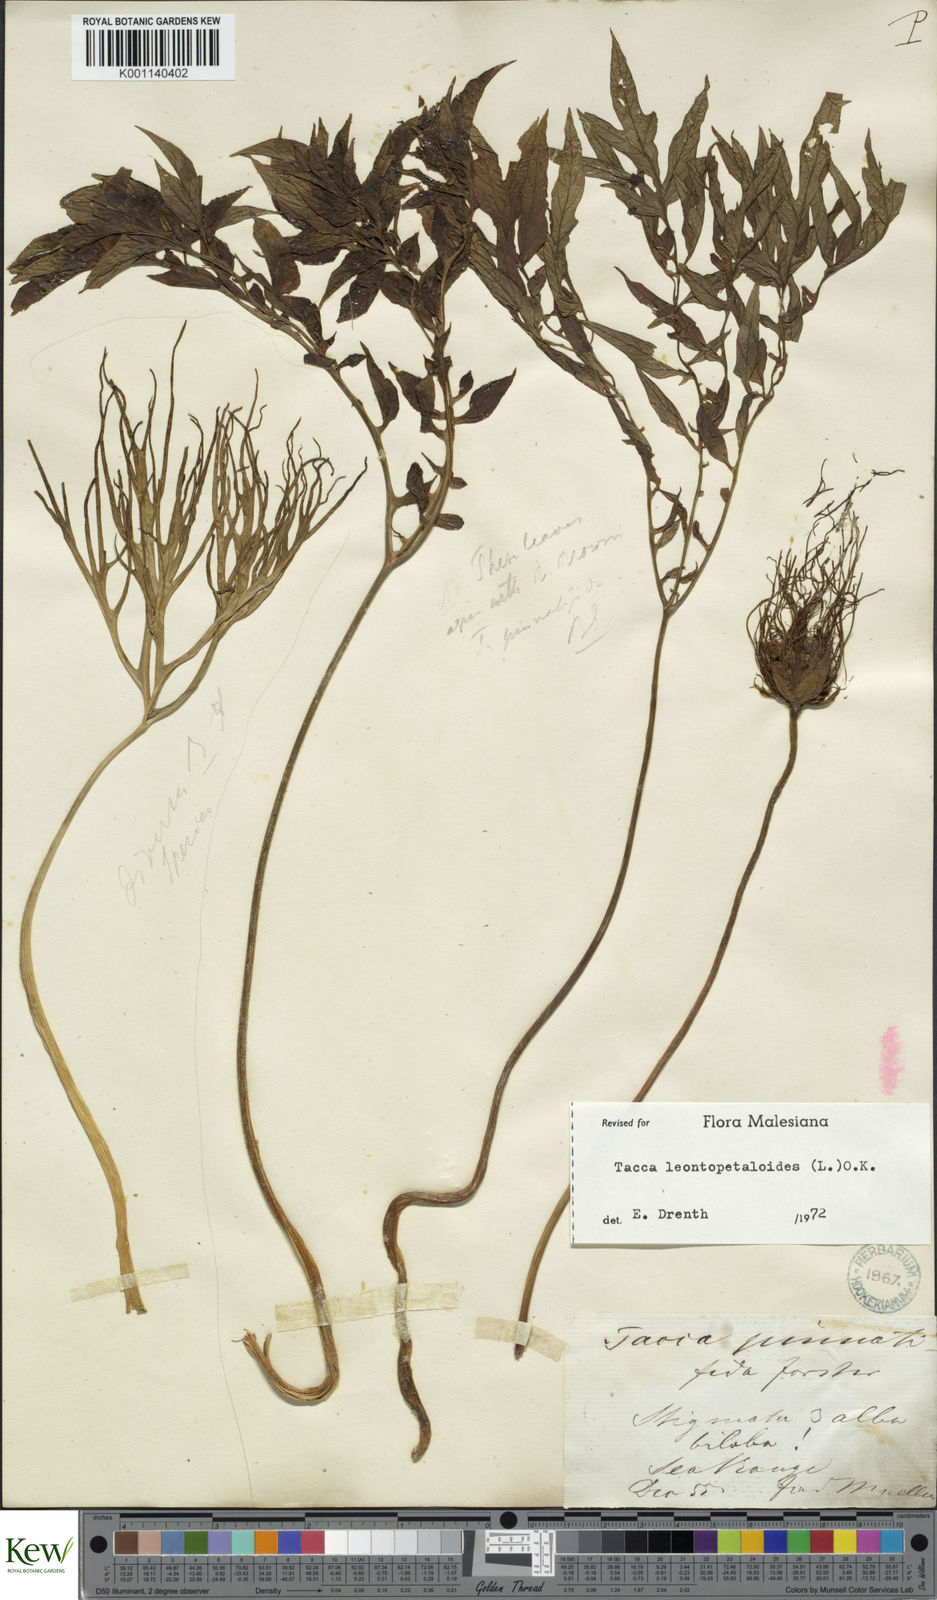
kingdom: Plantae
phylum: Tracheophyta
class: Liliopsida
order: Dioscoreales
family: Dioscoreaceae
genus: Tacca
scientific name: Tacca leontopetaloides
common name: Arrowroot
